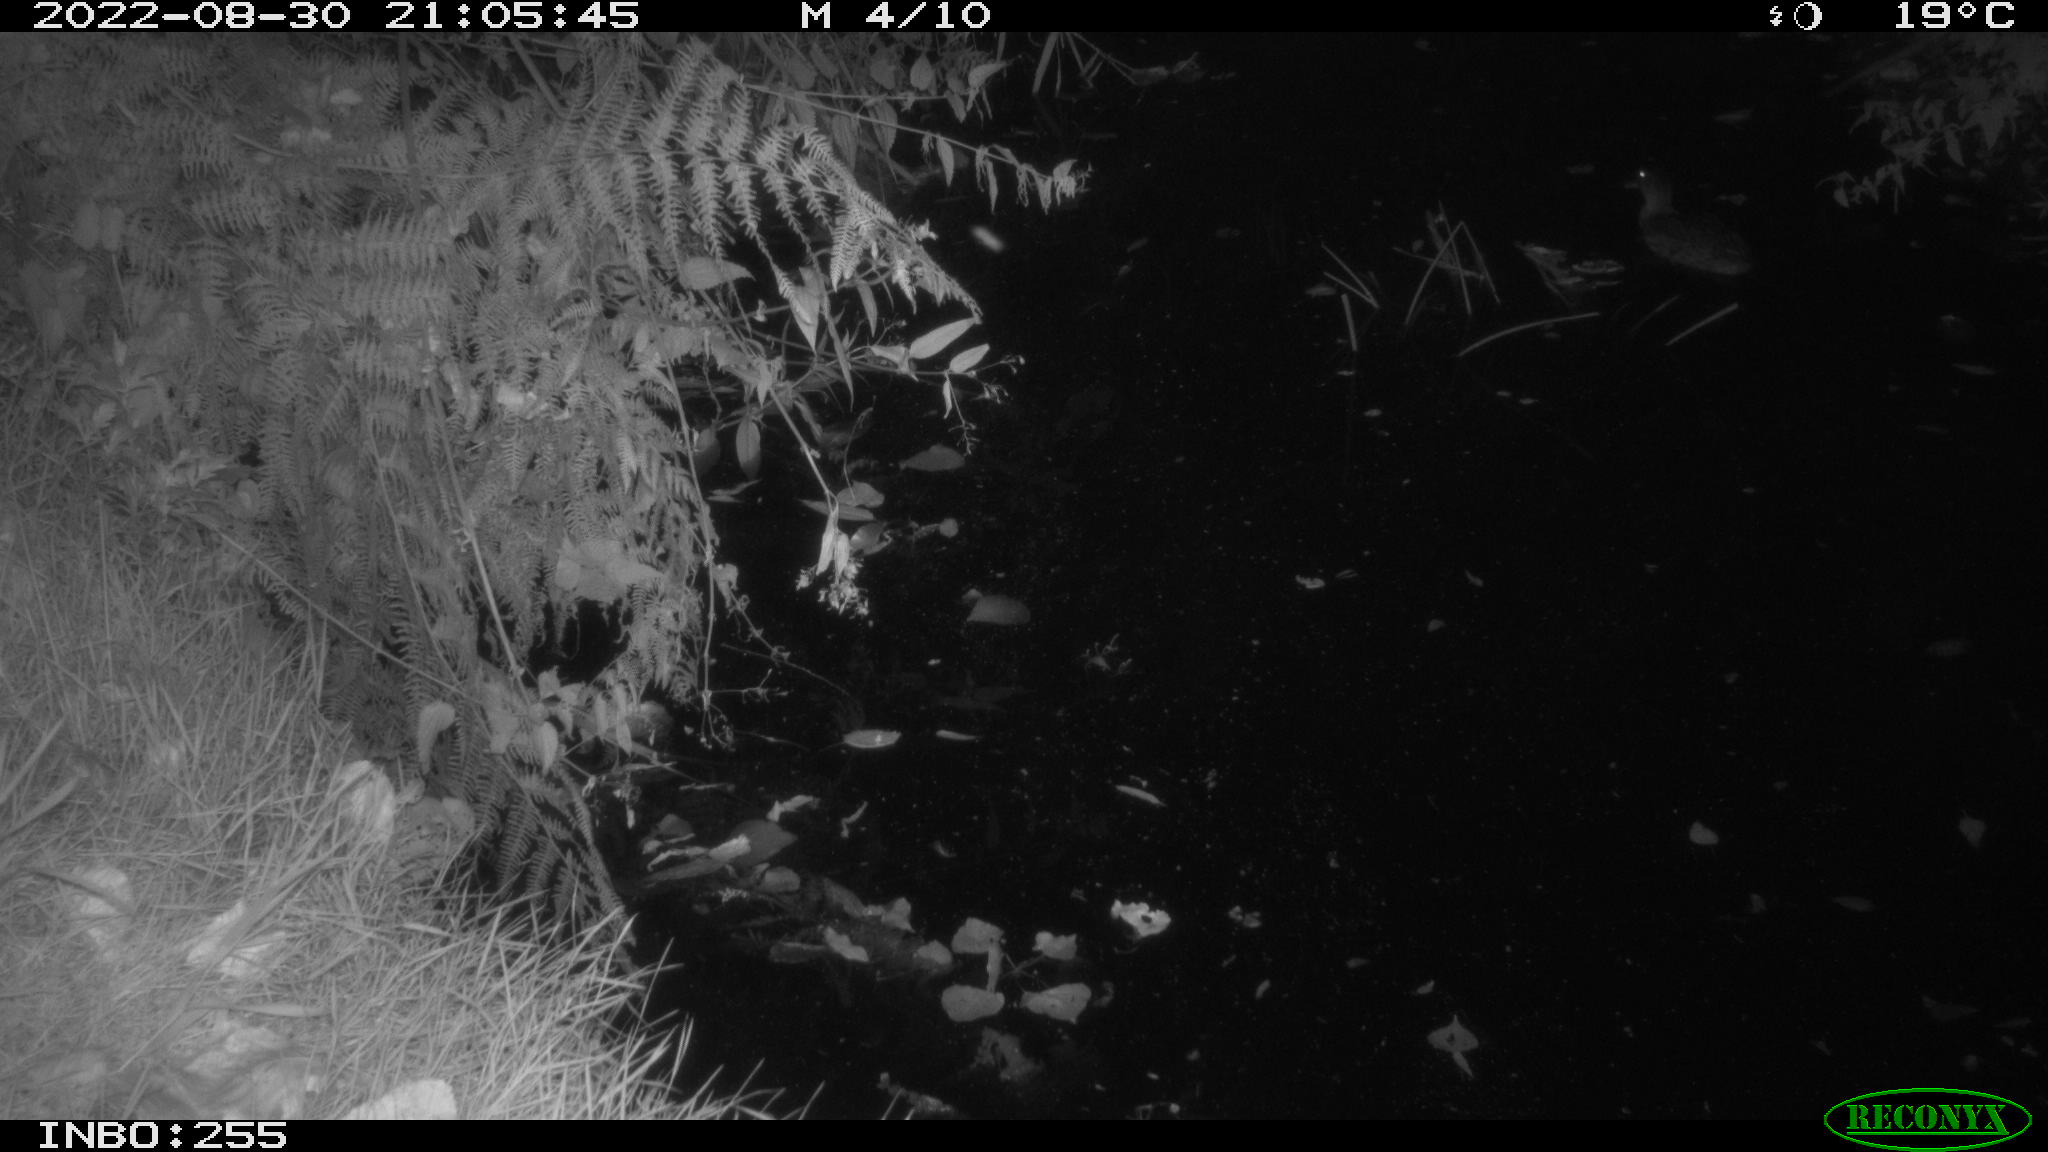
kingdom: Animalia
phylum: Chordata
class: Aves
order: Anseriformes
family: Anatidae
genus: Anas
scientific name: Anas platyrhynchos
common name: Mallard
